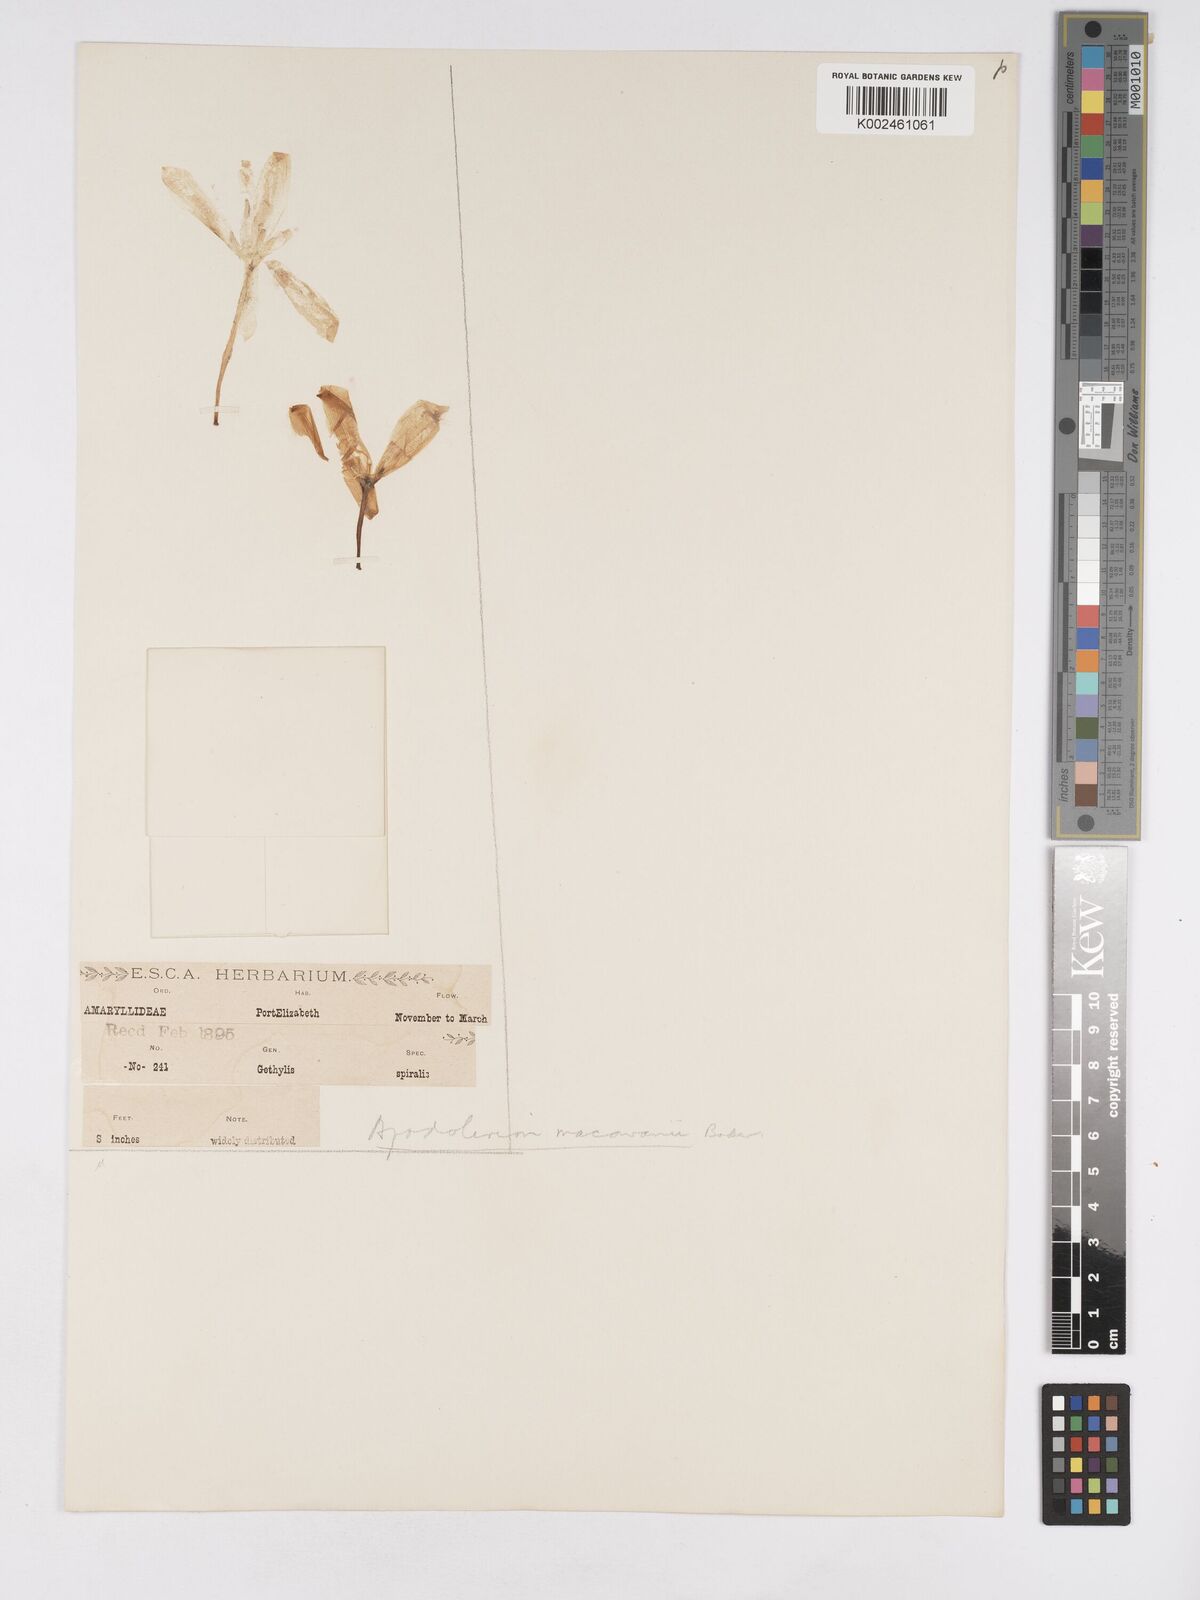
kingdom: Plantae
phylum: Tracheophyta
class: Liliopsida
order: Asparagales
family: Amaryllidaceae
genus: Apodolirion
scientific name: Apodolirion macowanii
